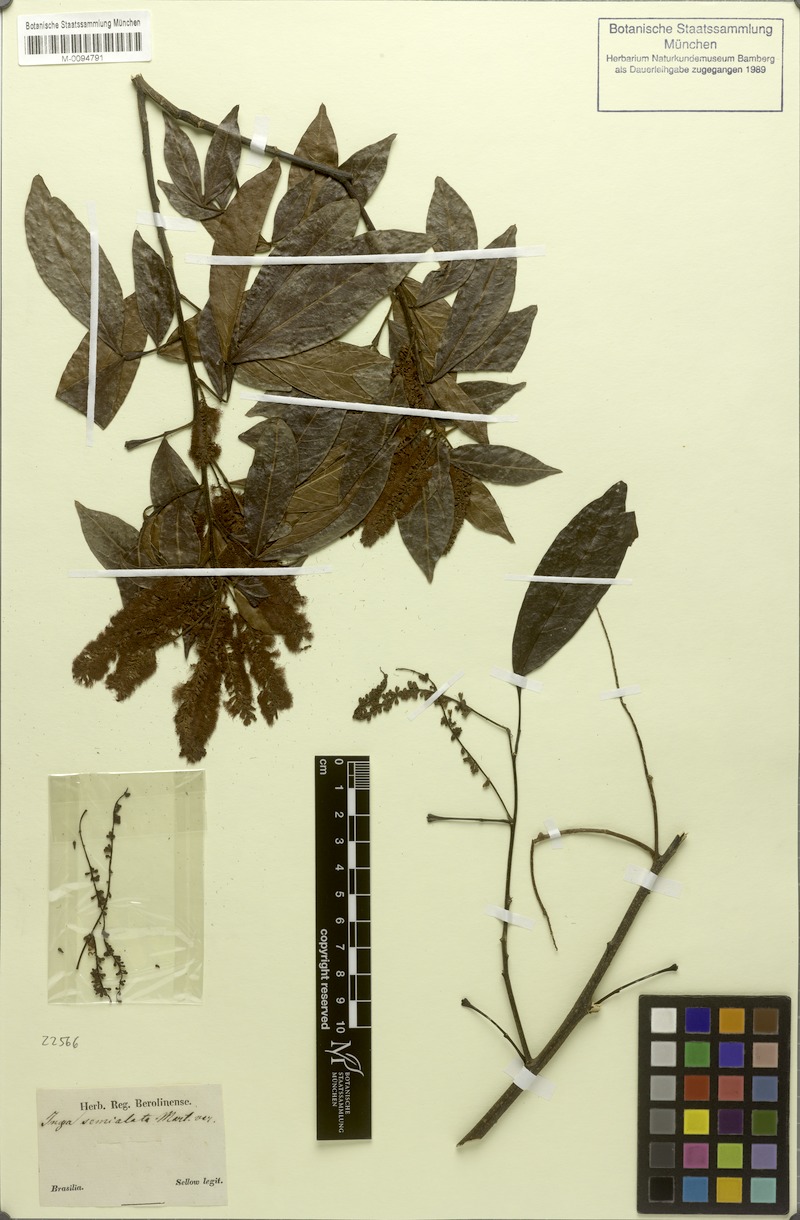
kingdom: Plantae
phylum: Tracheophyta
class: Magnoliopsida
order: Fabales
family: Fabaceae
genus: Inga
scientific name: Inga marginata
